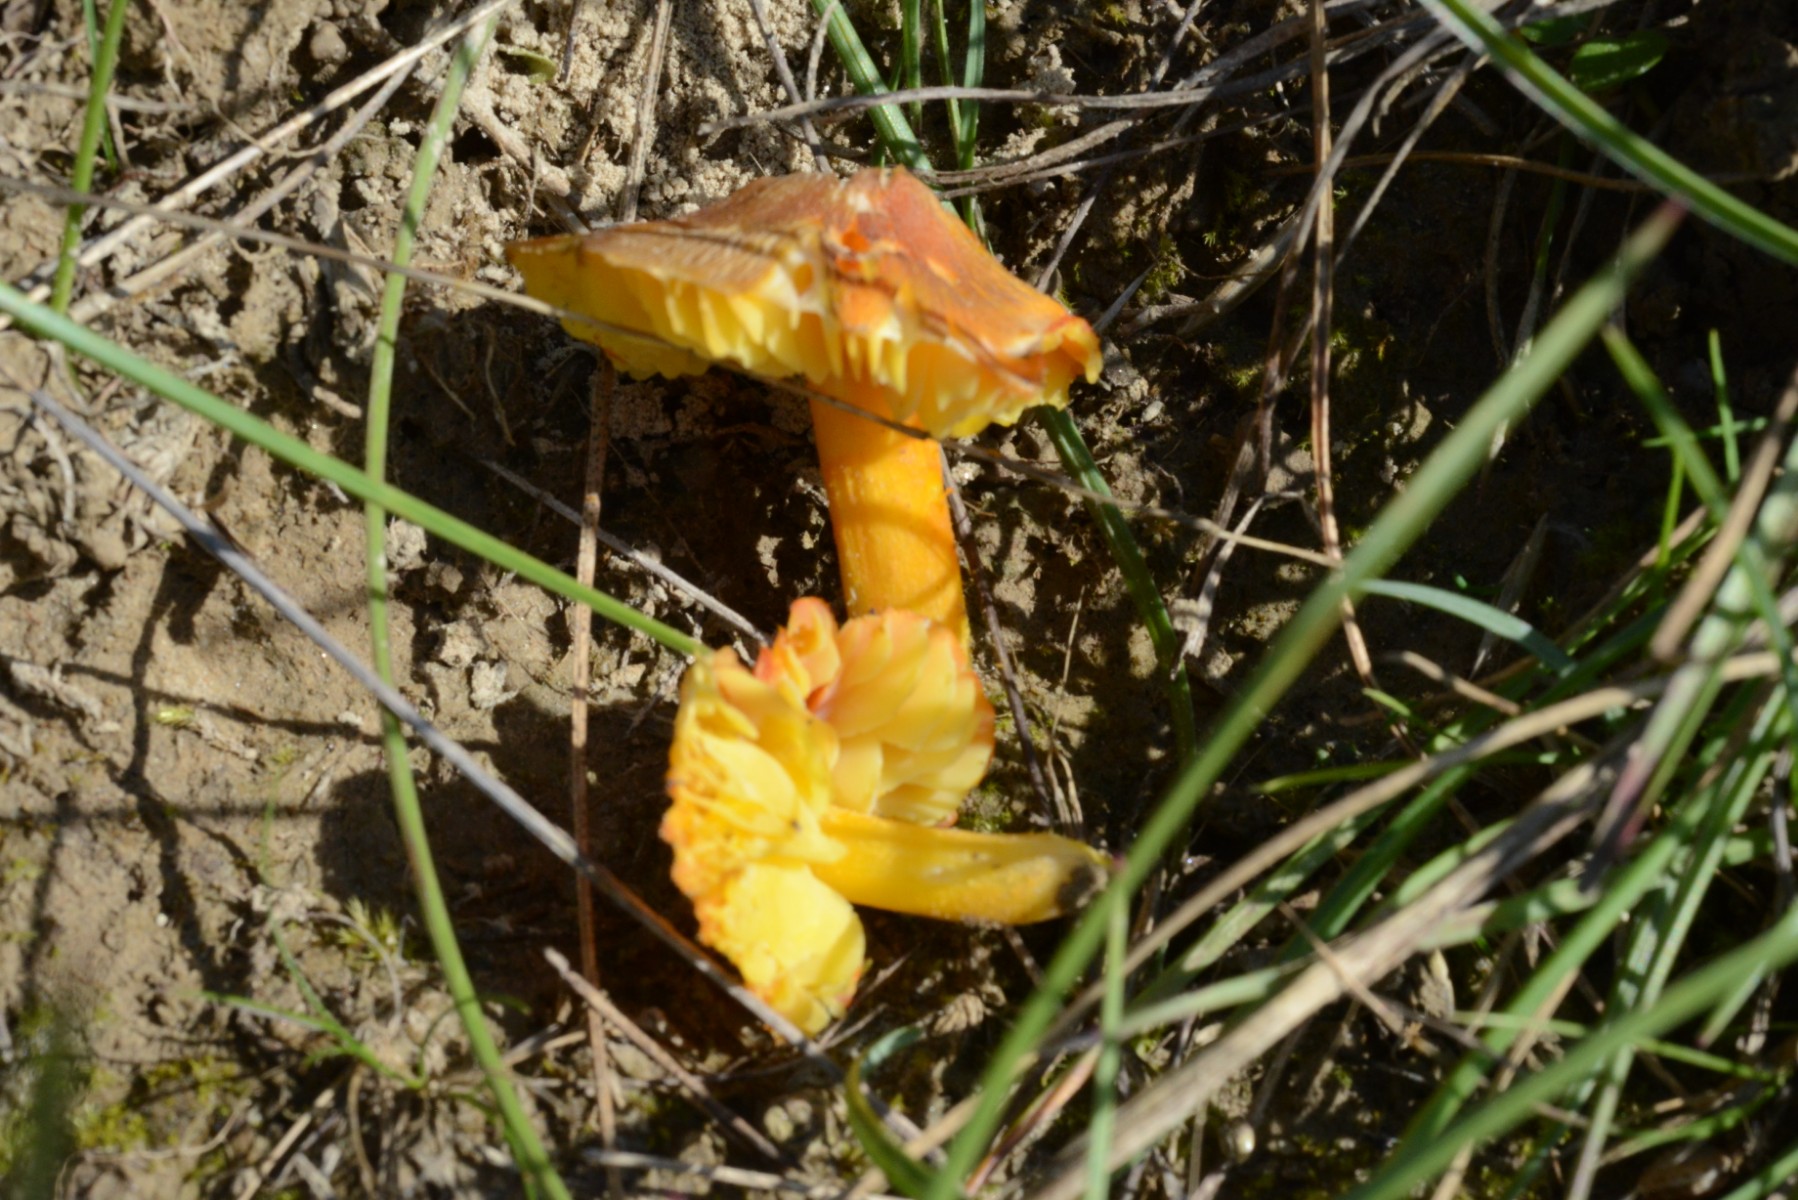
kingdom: Fungi
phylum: Basidiomycota
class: Agaricomycetes
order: Agaricales
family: Hygrophoraceae
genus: Hygrocybe
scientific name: Hygrocybe intermedia
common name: trævlet vokshat
